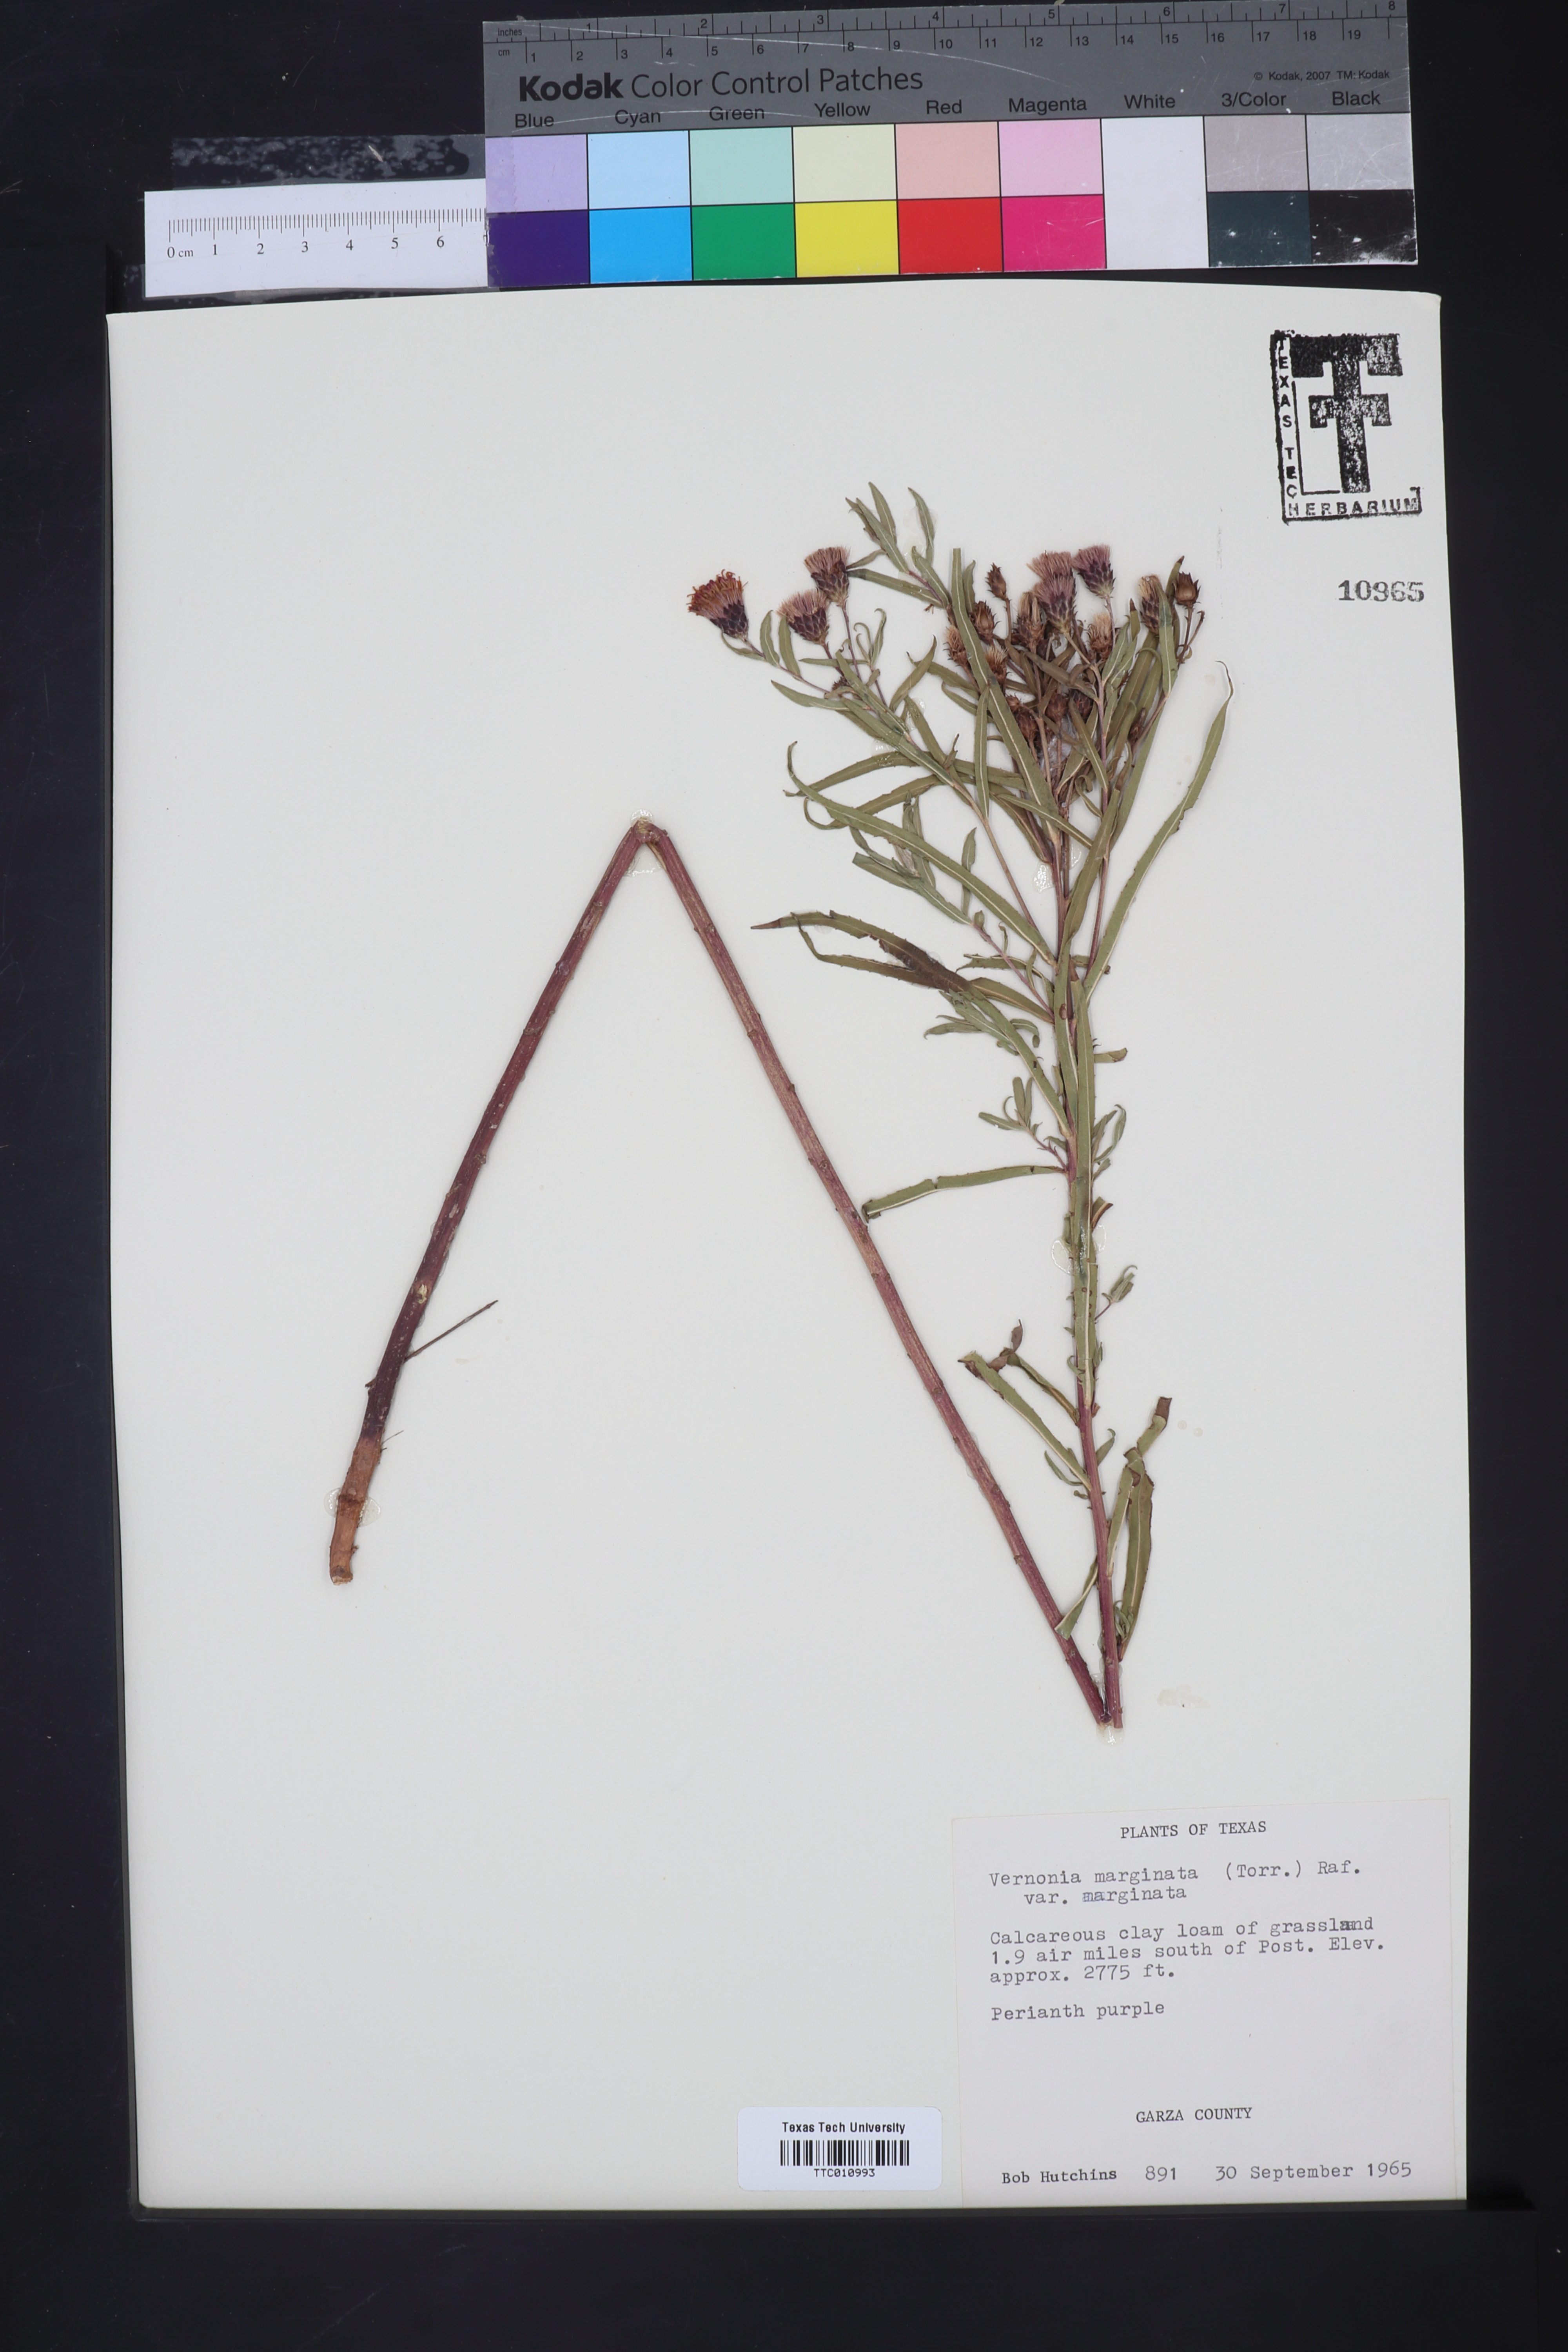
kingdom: Plantae
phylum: Tracheophyta
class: Magnoliopsida
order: Asterales
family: Asteraceae
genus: Vernonia
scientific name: Vernonia marginata
